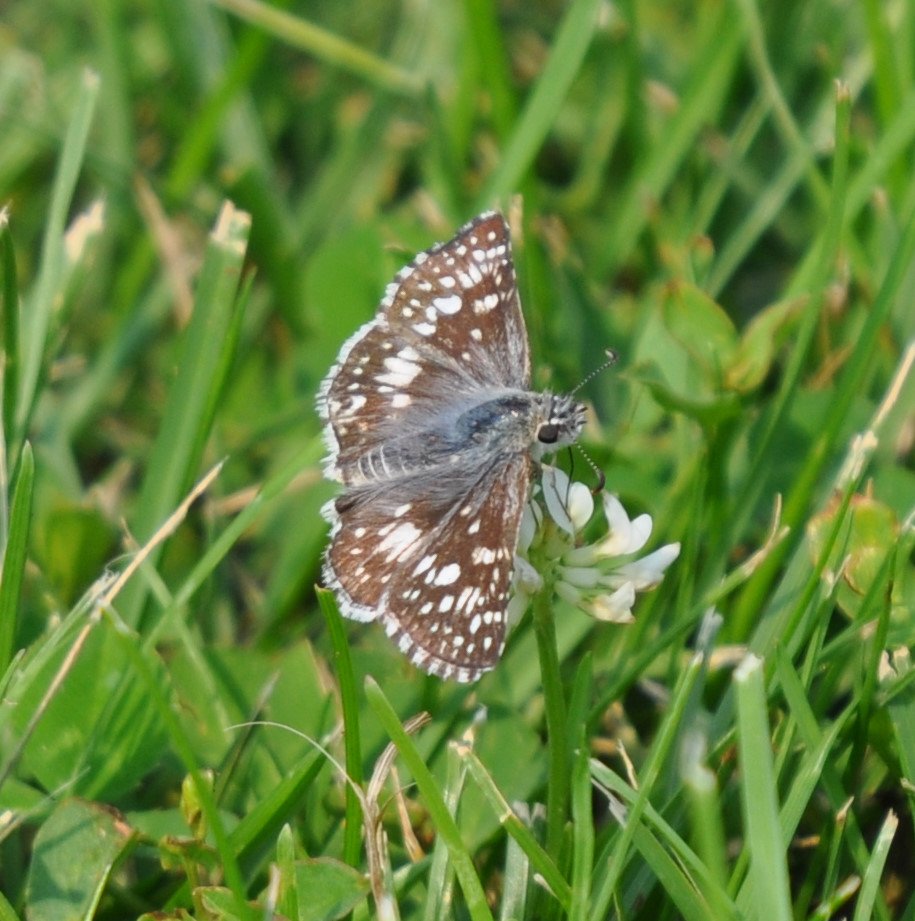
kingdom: Animalia
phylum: Arthropoda
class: Insecta
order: Lepidoptera
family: Hesperiidae
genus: Pyrgus
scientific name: Pyrgus communis
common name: Common Checkered-Skipper
